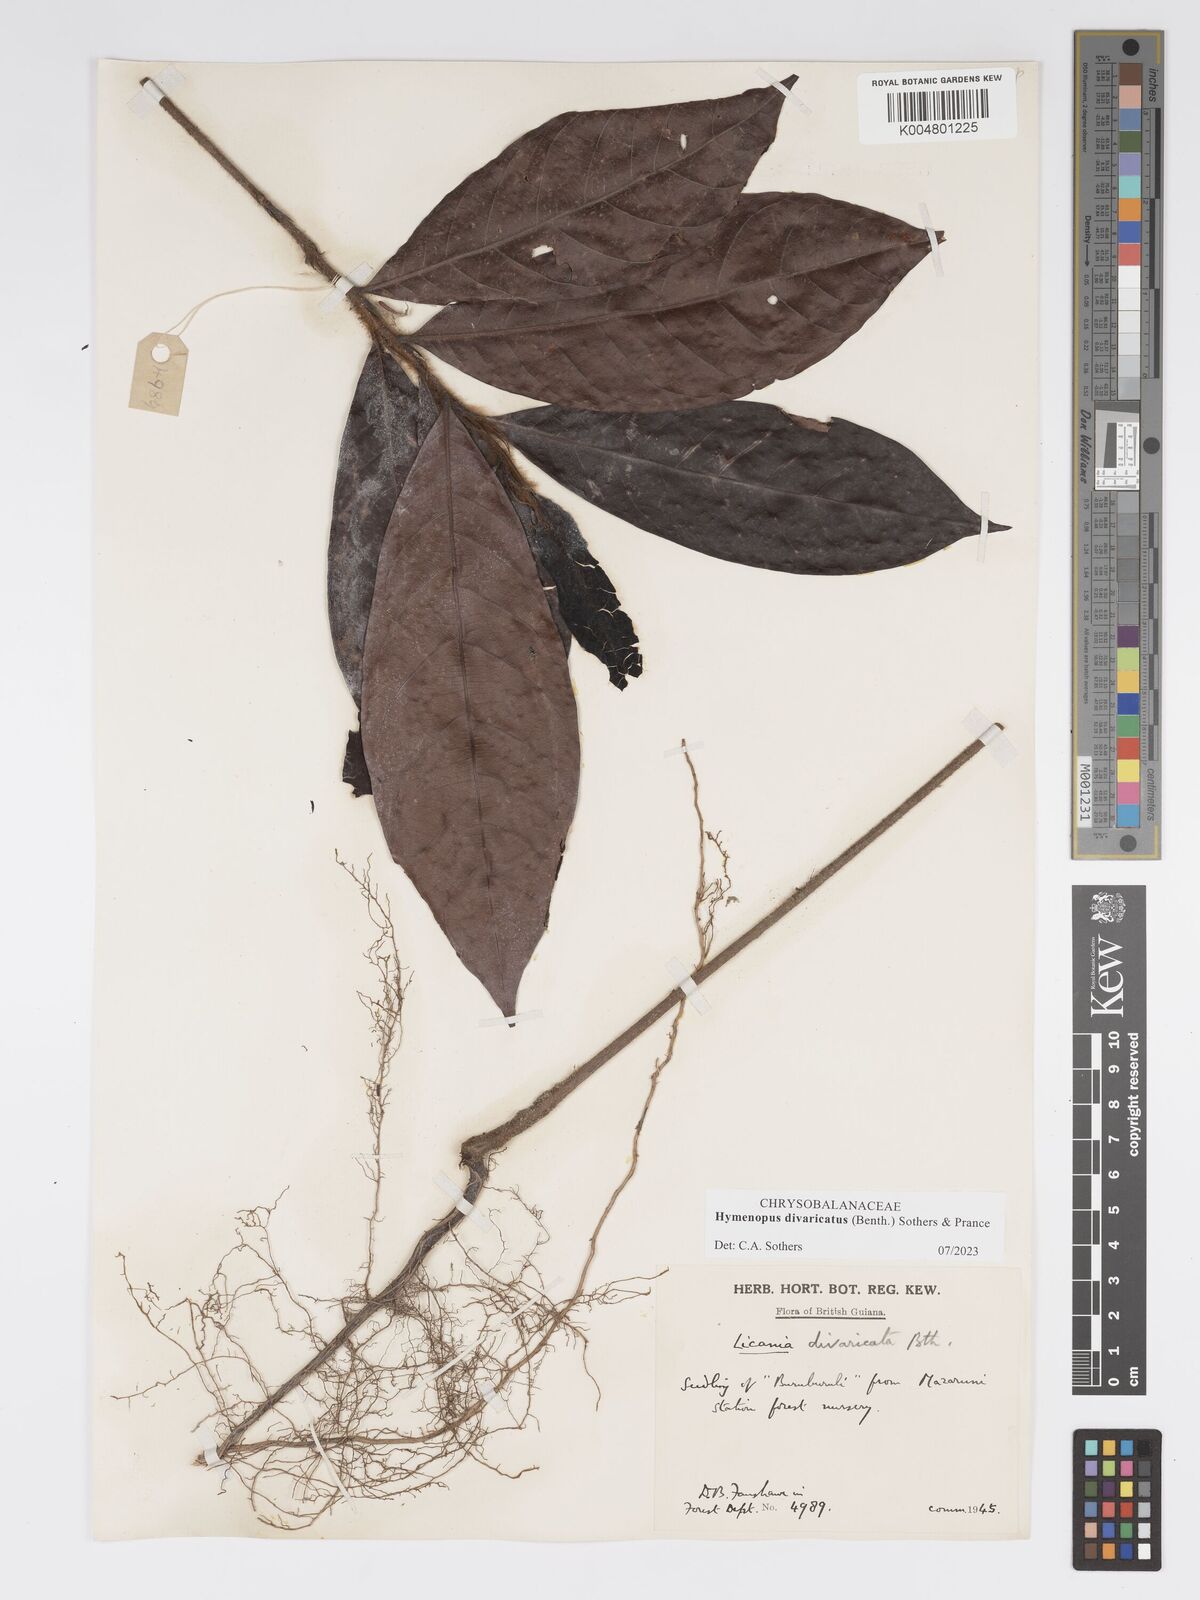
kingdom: Plantae
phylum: Tracheophyta
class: Magnoliopsida
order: Malpighiales
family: Chrysobalanaceae
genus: Hymenopus
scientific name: Hymenopus divaricatus
